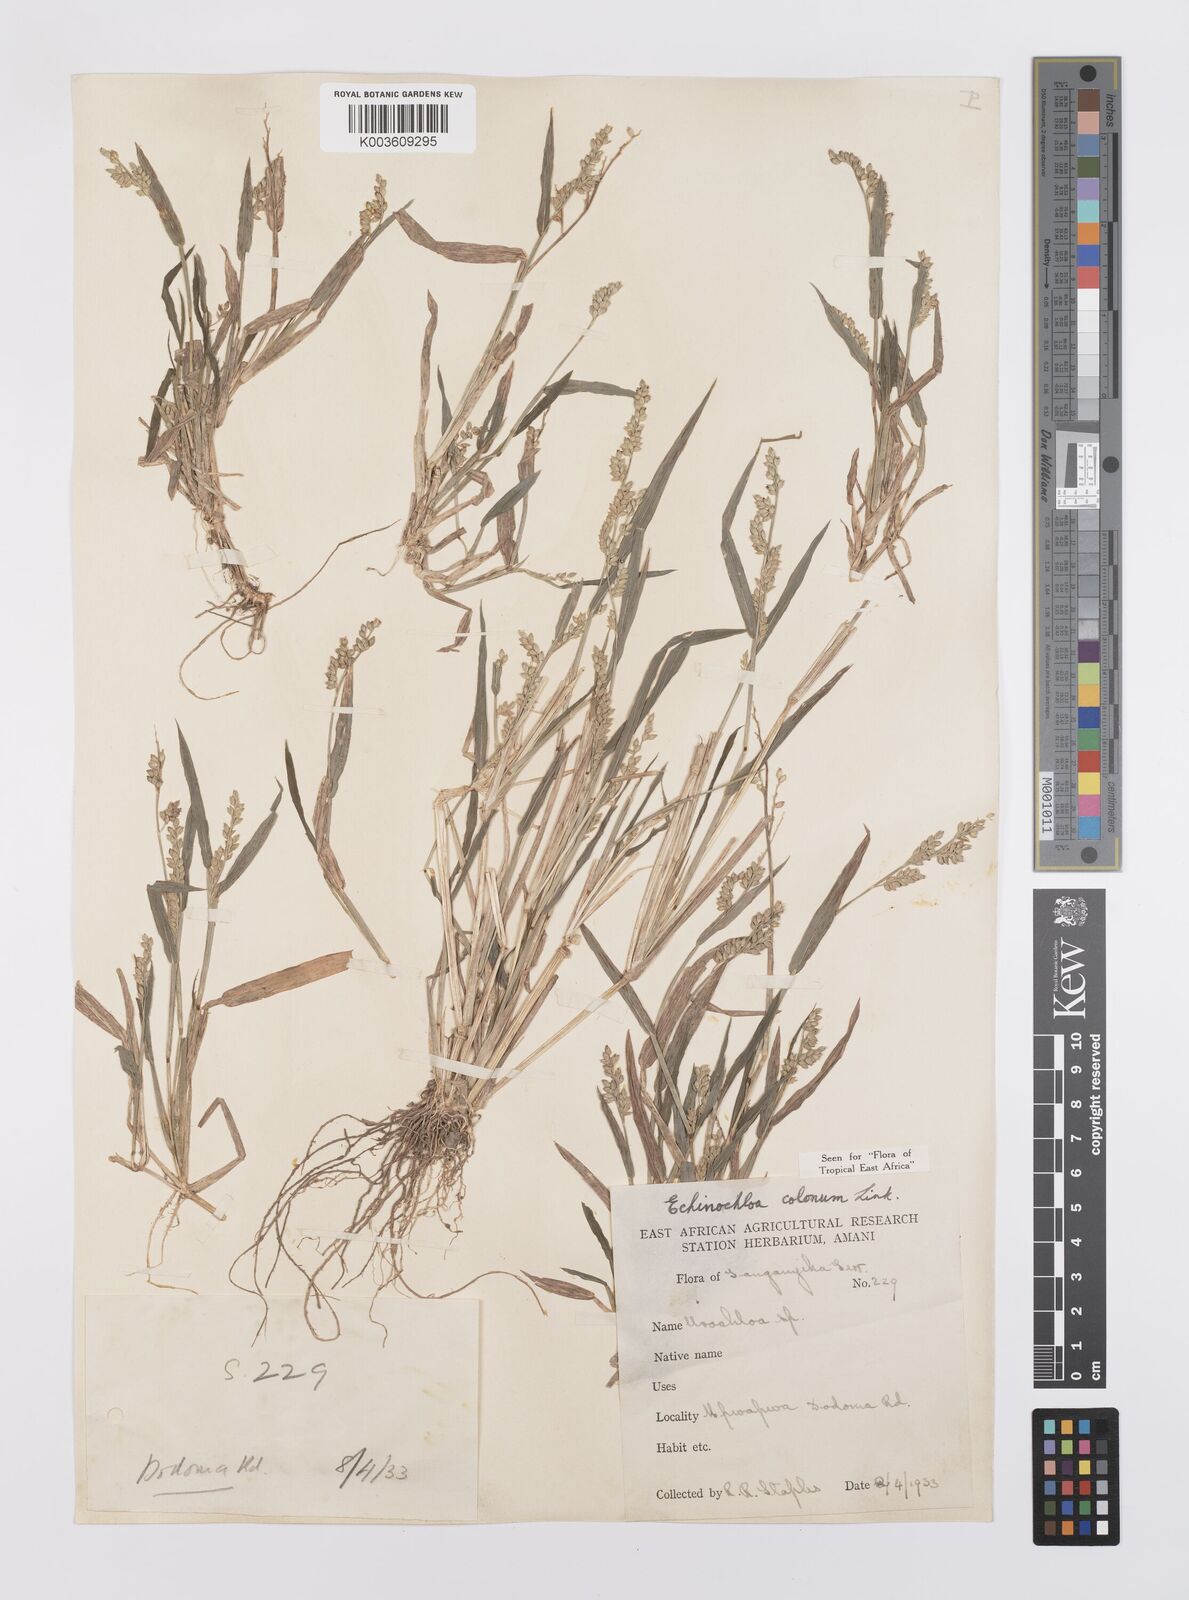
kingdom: Plantae
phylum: Tracheophyta
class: Liliopsida
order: Poales
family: Poaceae
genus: Echinochloa
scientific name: Echinochloa colonum
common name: Jungle rice
